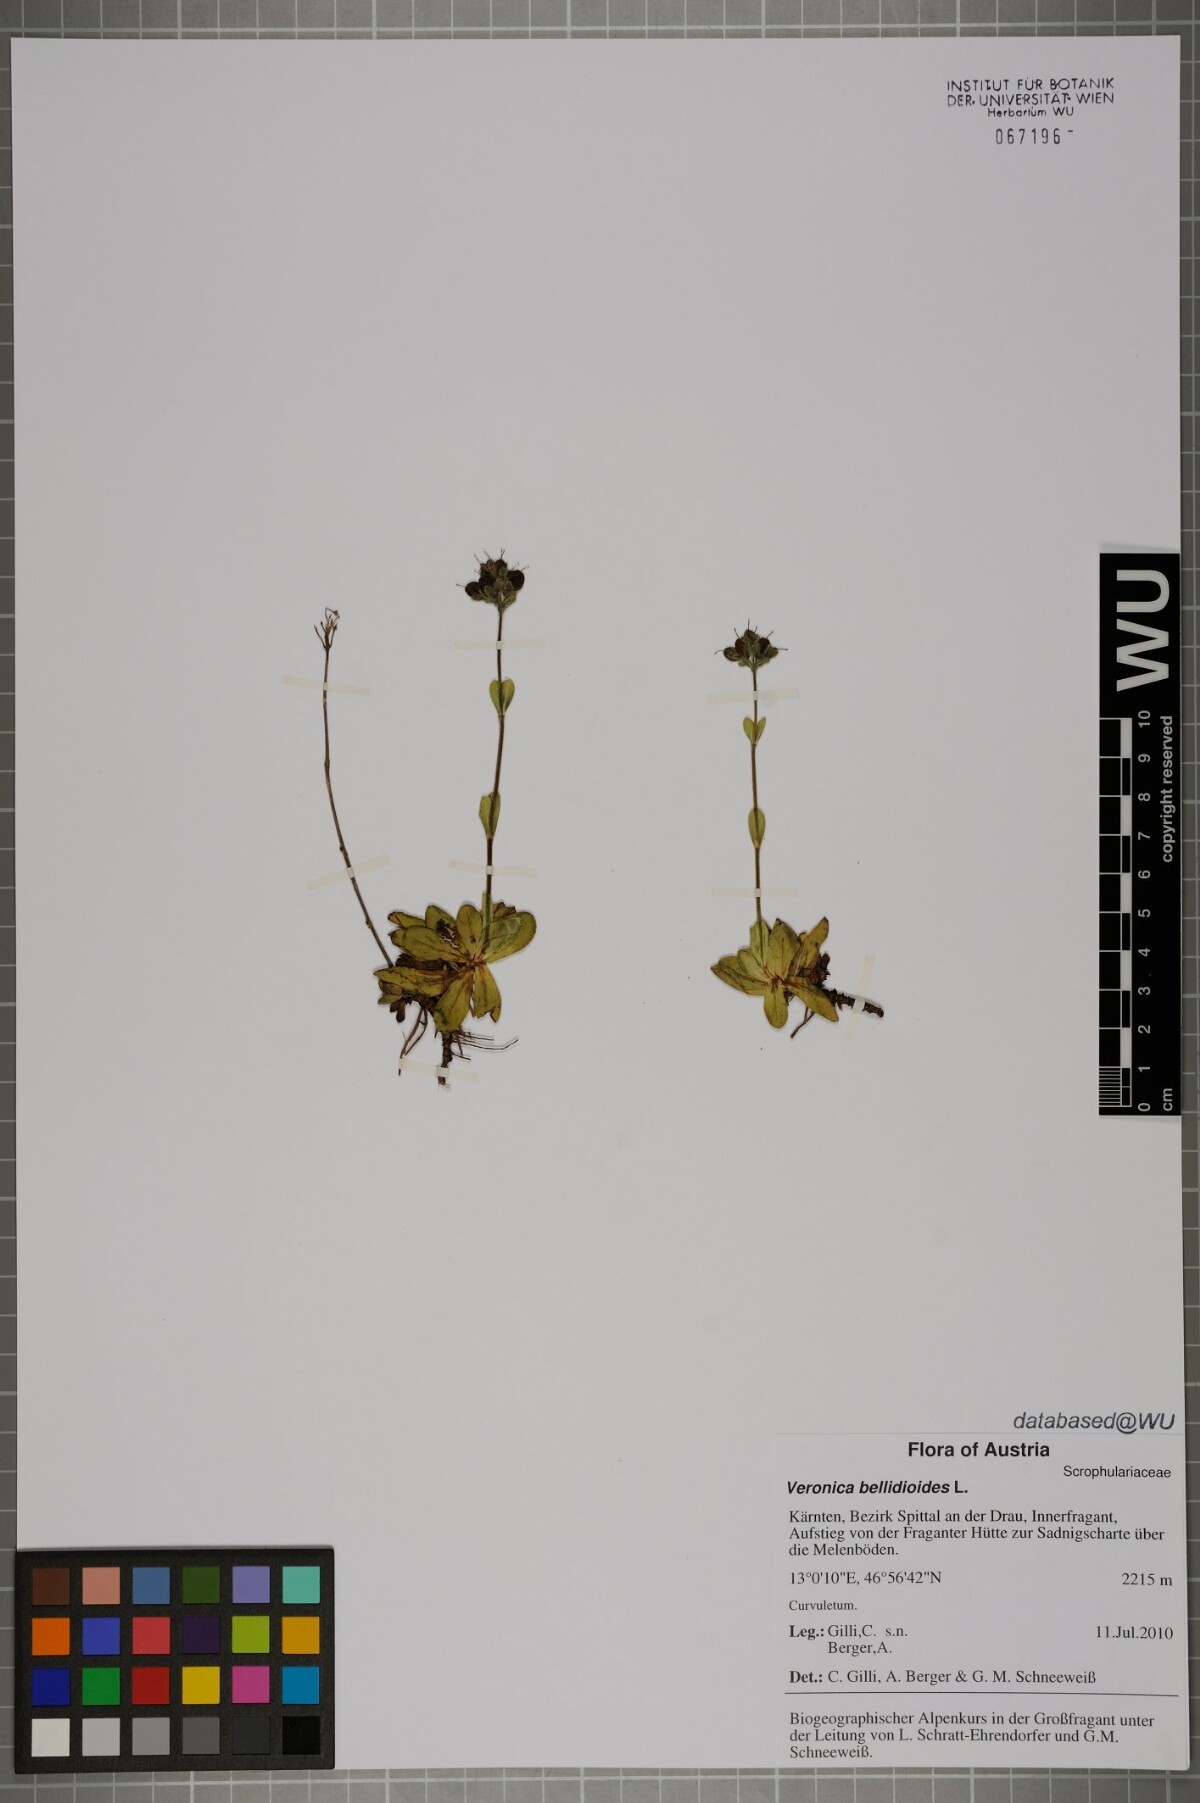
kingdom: Plantae
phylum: Tracheophyta
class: Magnoliopsida
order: Lamiales
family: Plantaginaceae
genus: Veronica
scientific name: Veronica bellidioides
